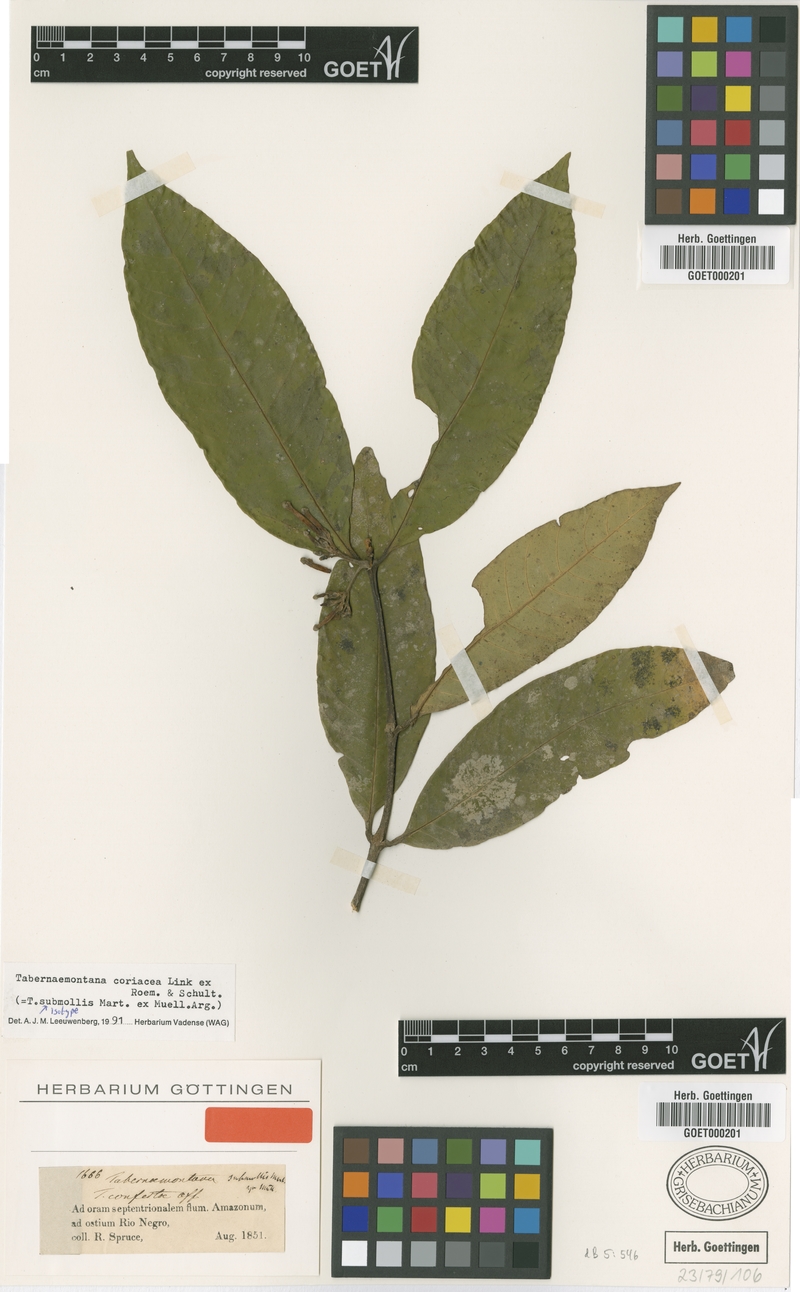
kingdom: Plantae
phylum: Tracheophyta
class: Magnoliopsida
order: Gentianales
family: Apocynaceae
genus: Tabernaemontana
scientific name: Tabernaemontana coriacea
